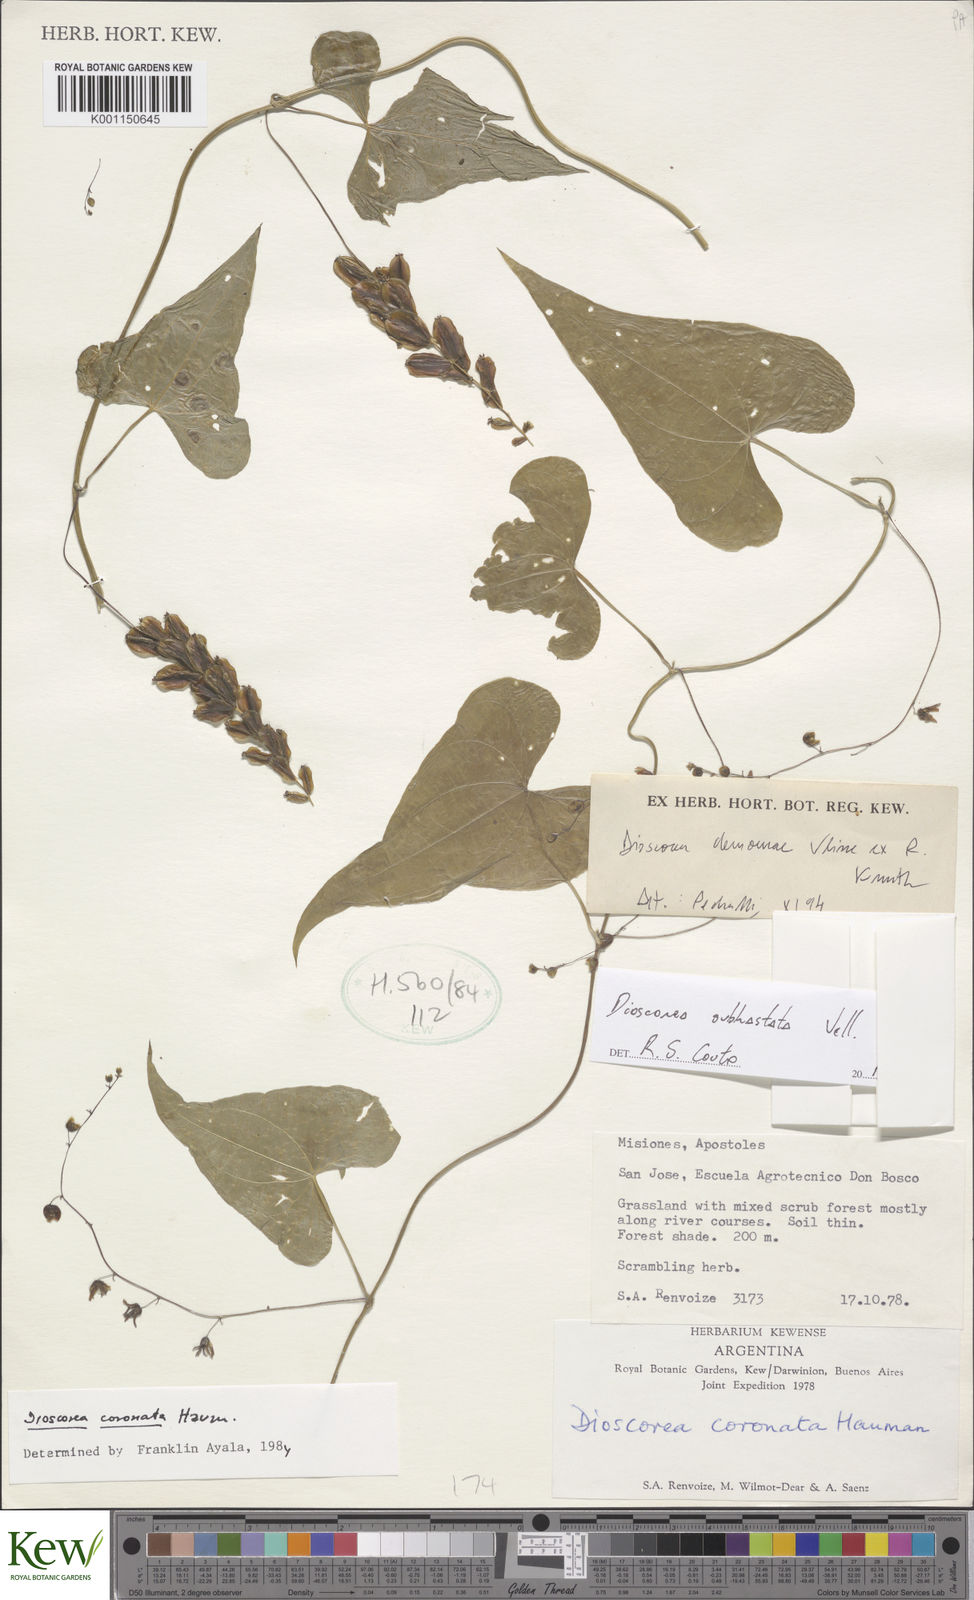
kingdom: Plantae
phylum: Tracheophyta
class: Liliopsida
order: Dioscoreales
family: Dioscoreaceae
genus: Dioscorea
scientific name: Dioscorea coronata
